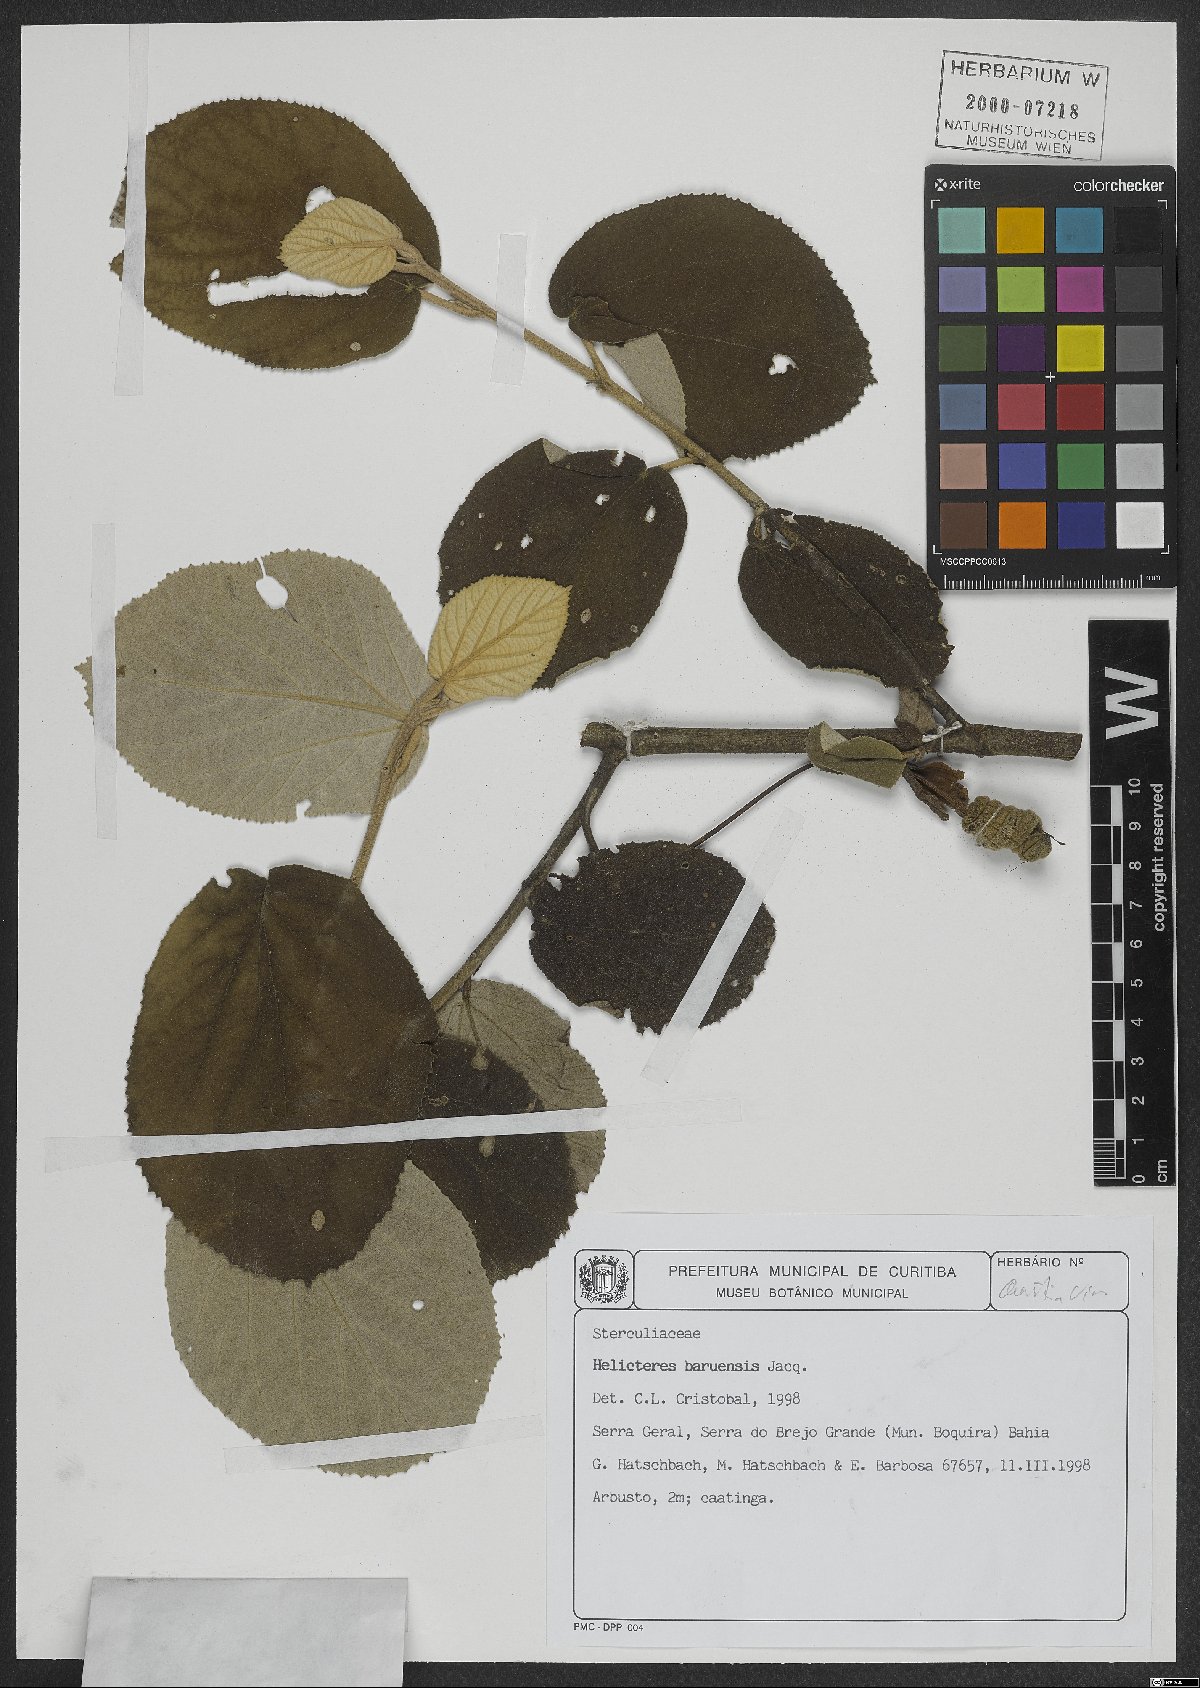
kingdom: Plantae
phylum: Tracheophyta
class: Magnoliopsida
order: Malvales
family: Malvaceae
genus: Helicteres
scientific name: Helicteres baruensis
